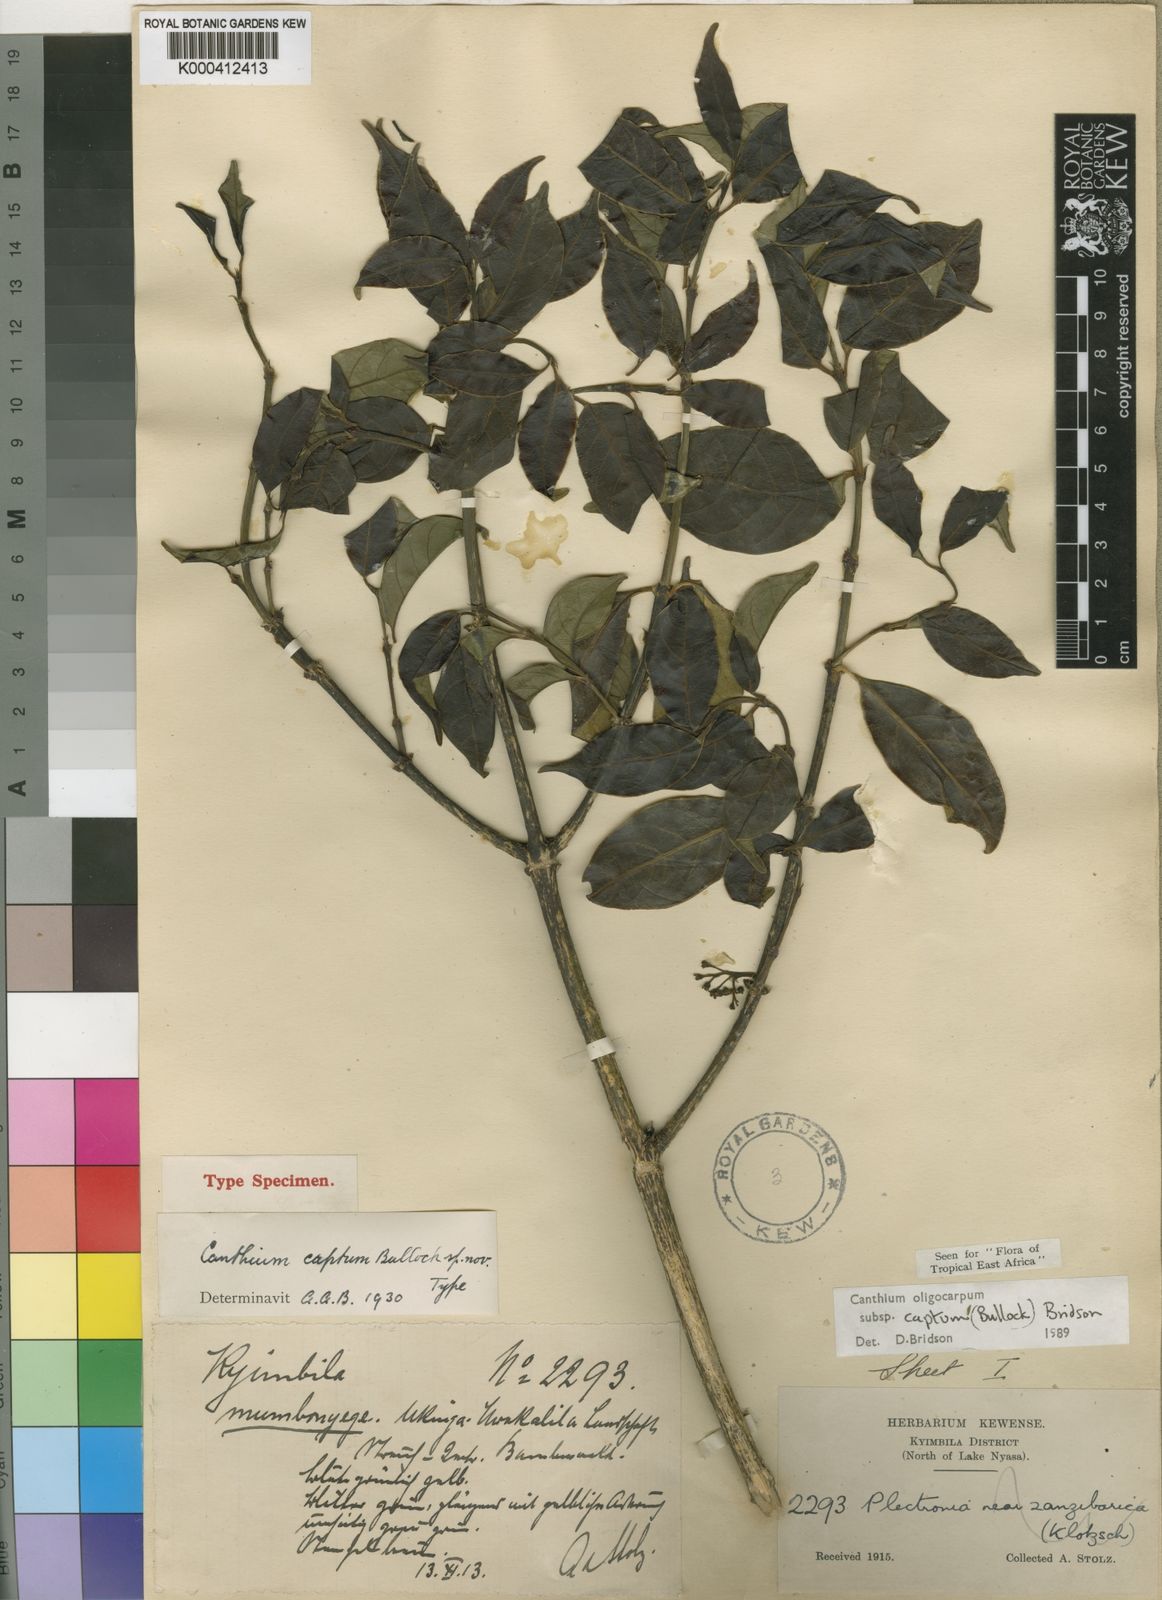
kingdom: Plantae
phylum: Tracheophyta
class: Magnoliopsida
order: Gentianales
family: Rubiaceae
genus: Canthium
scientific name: Canthium oligocarpum
